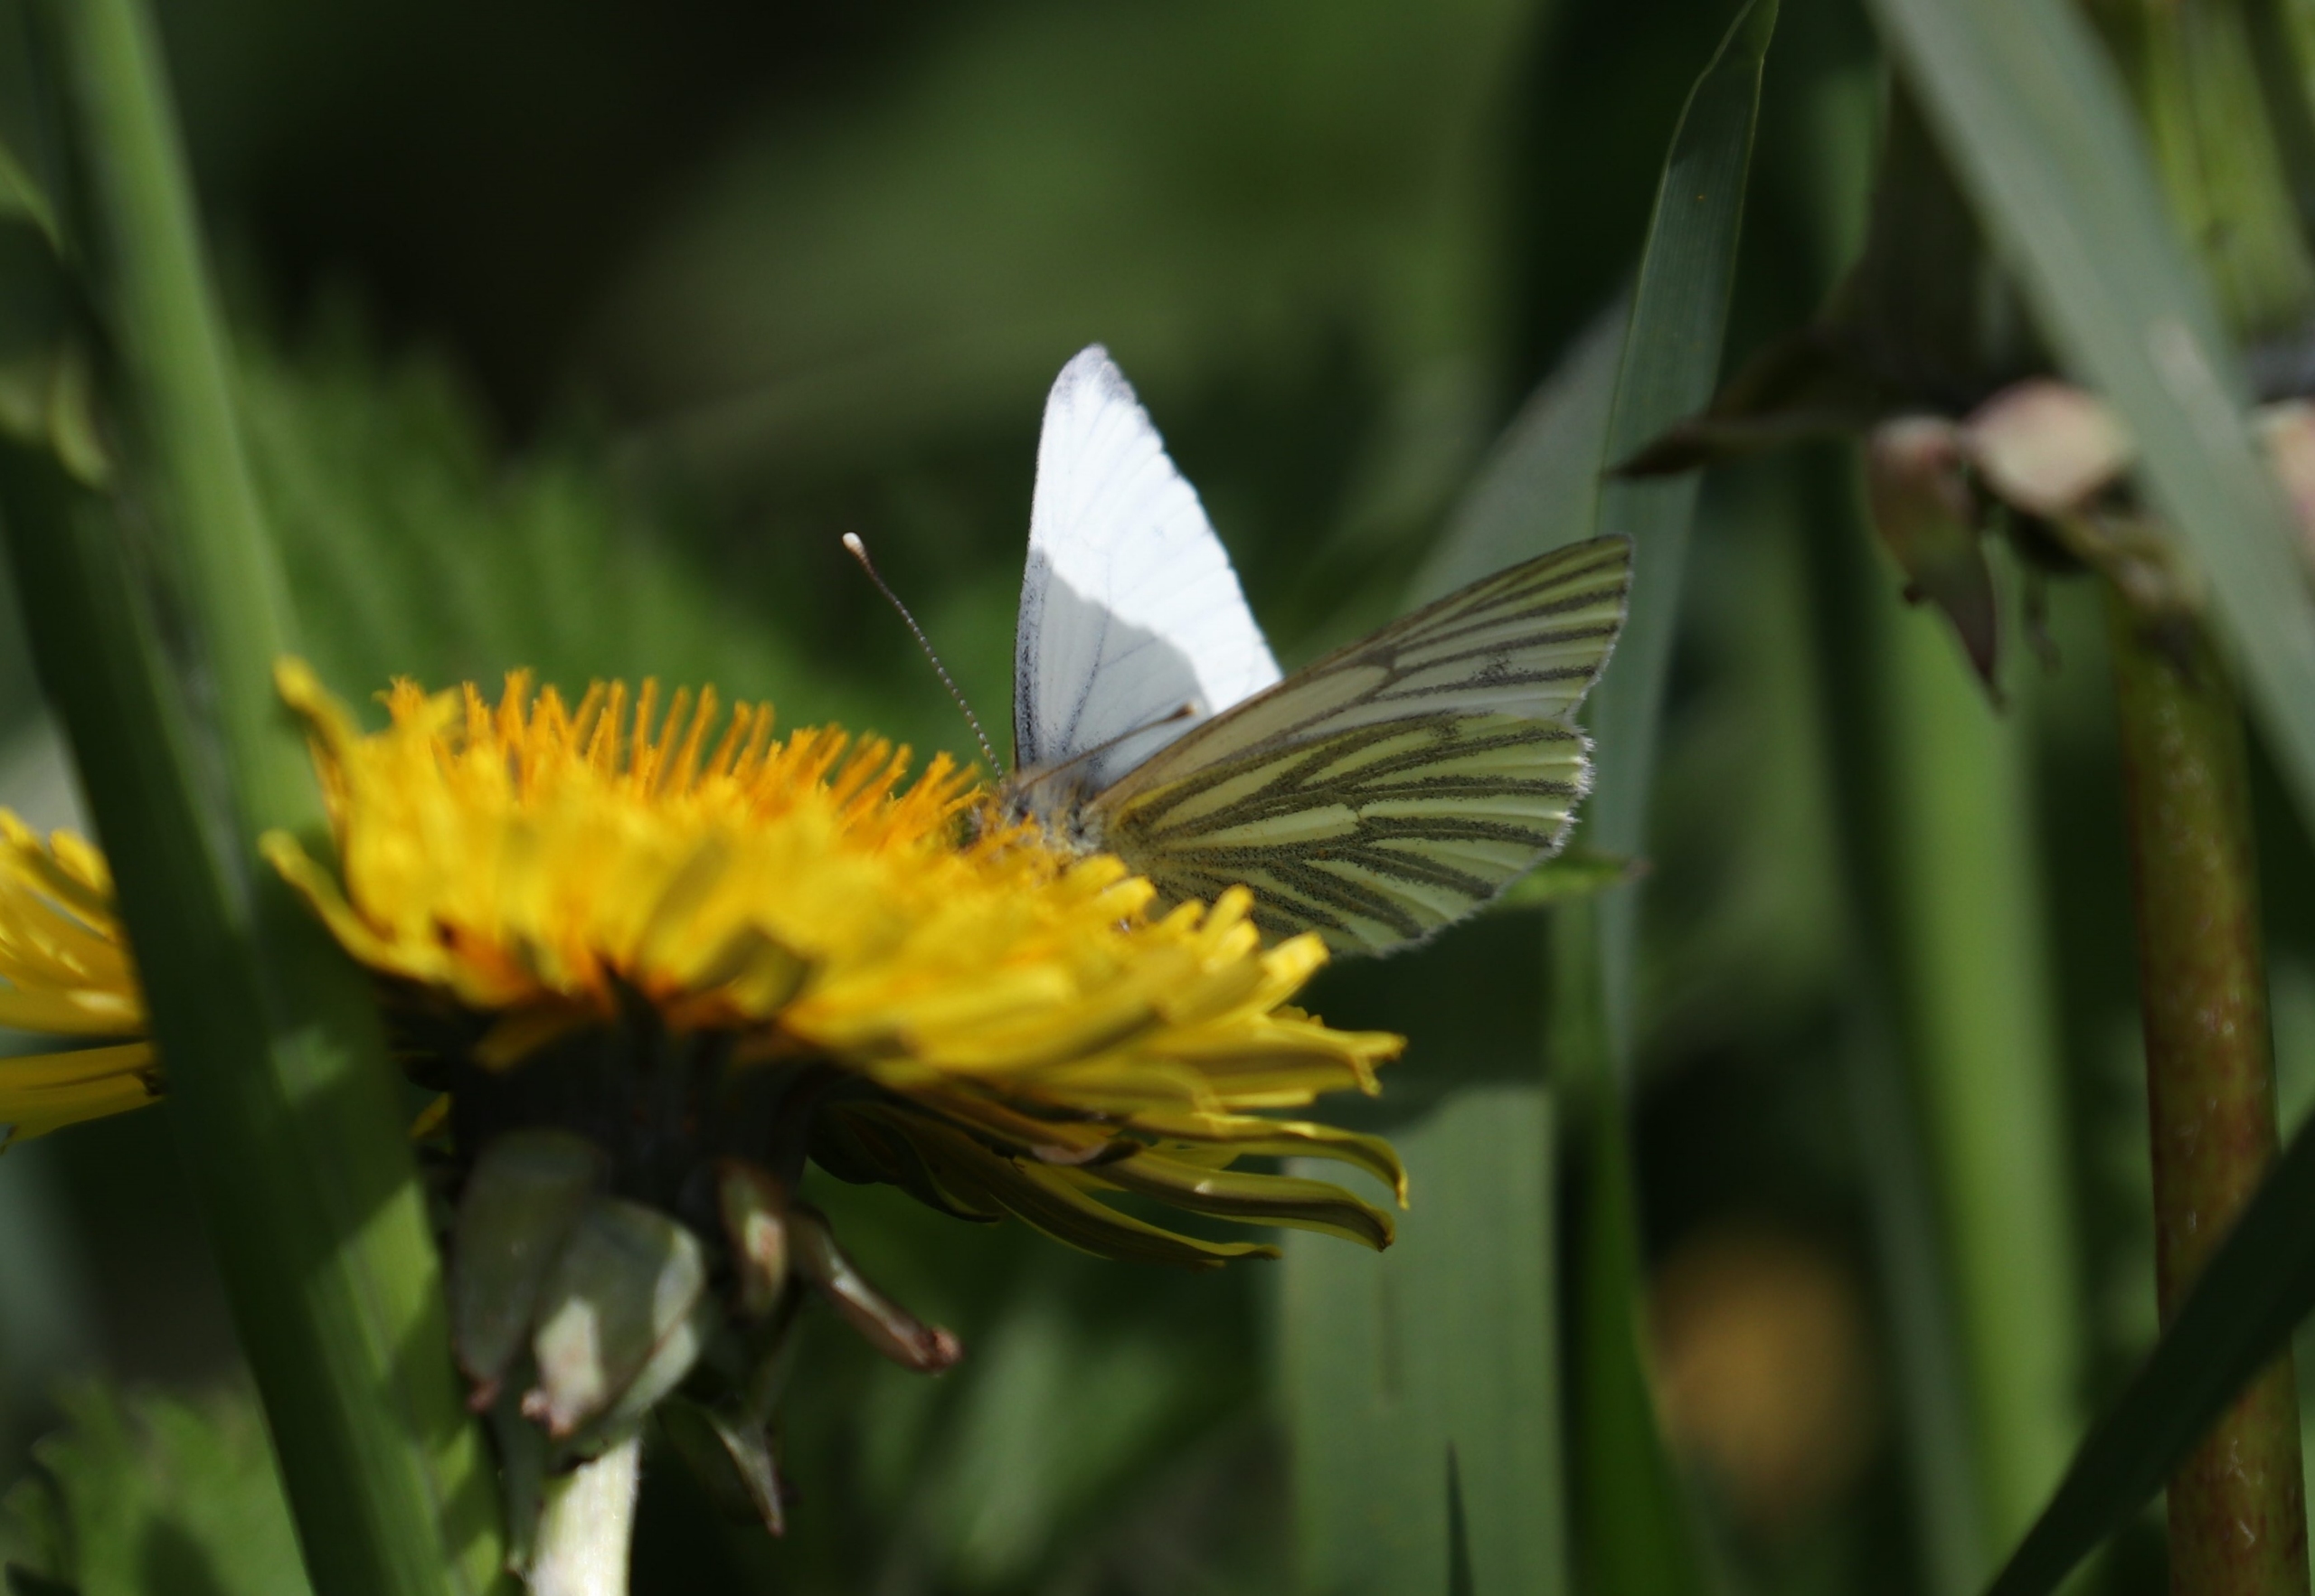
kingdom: Animalia
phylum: Arthropoda
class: Insecta
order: Lepidoptera
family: Pieridae
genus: Pieris
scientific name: Pieris napi
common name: Grønåret kålsommerfugl
